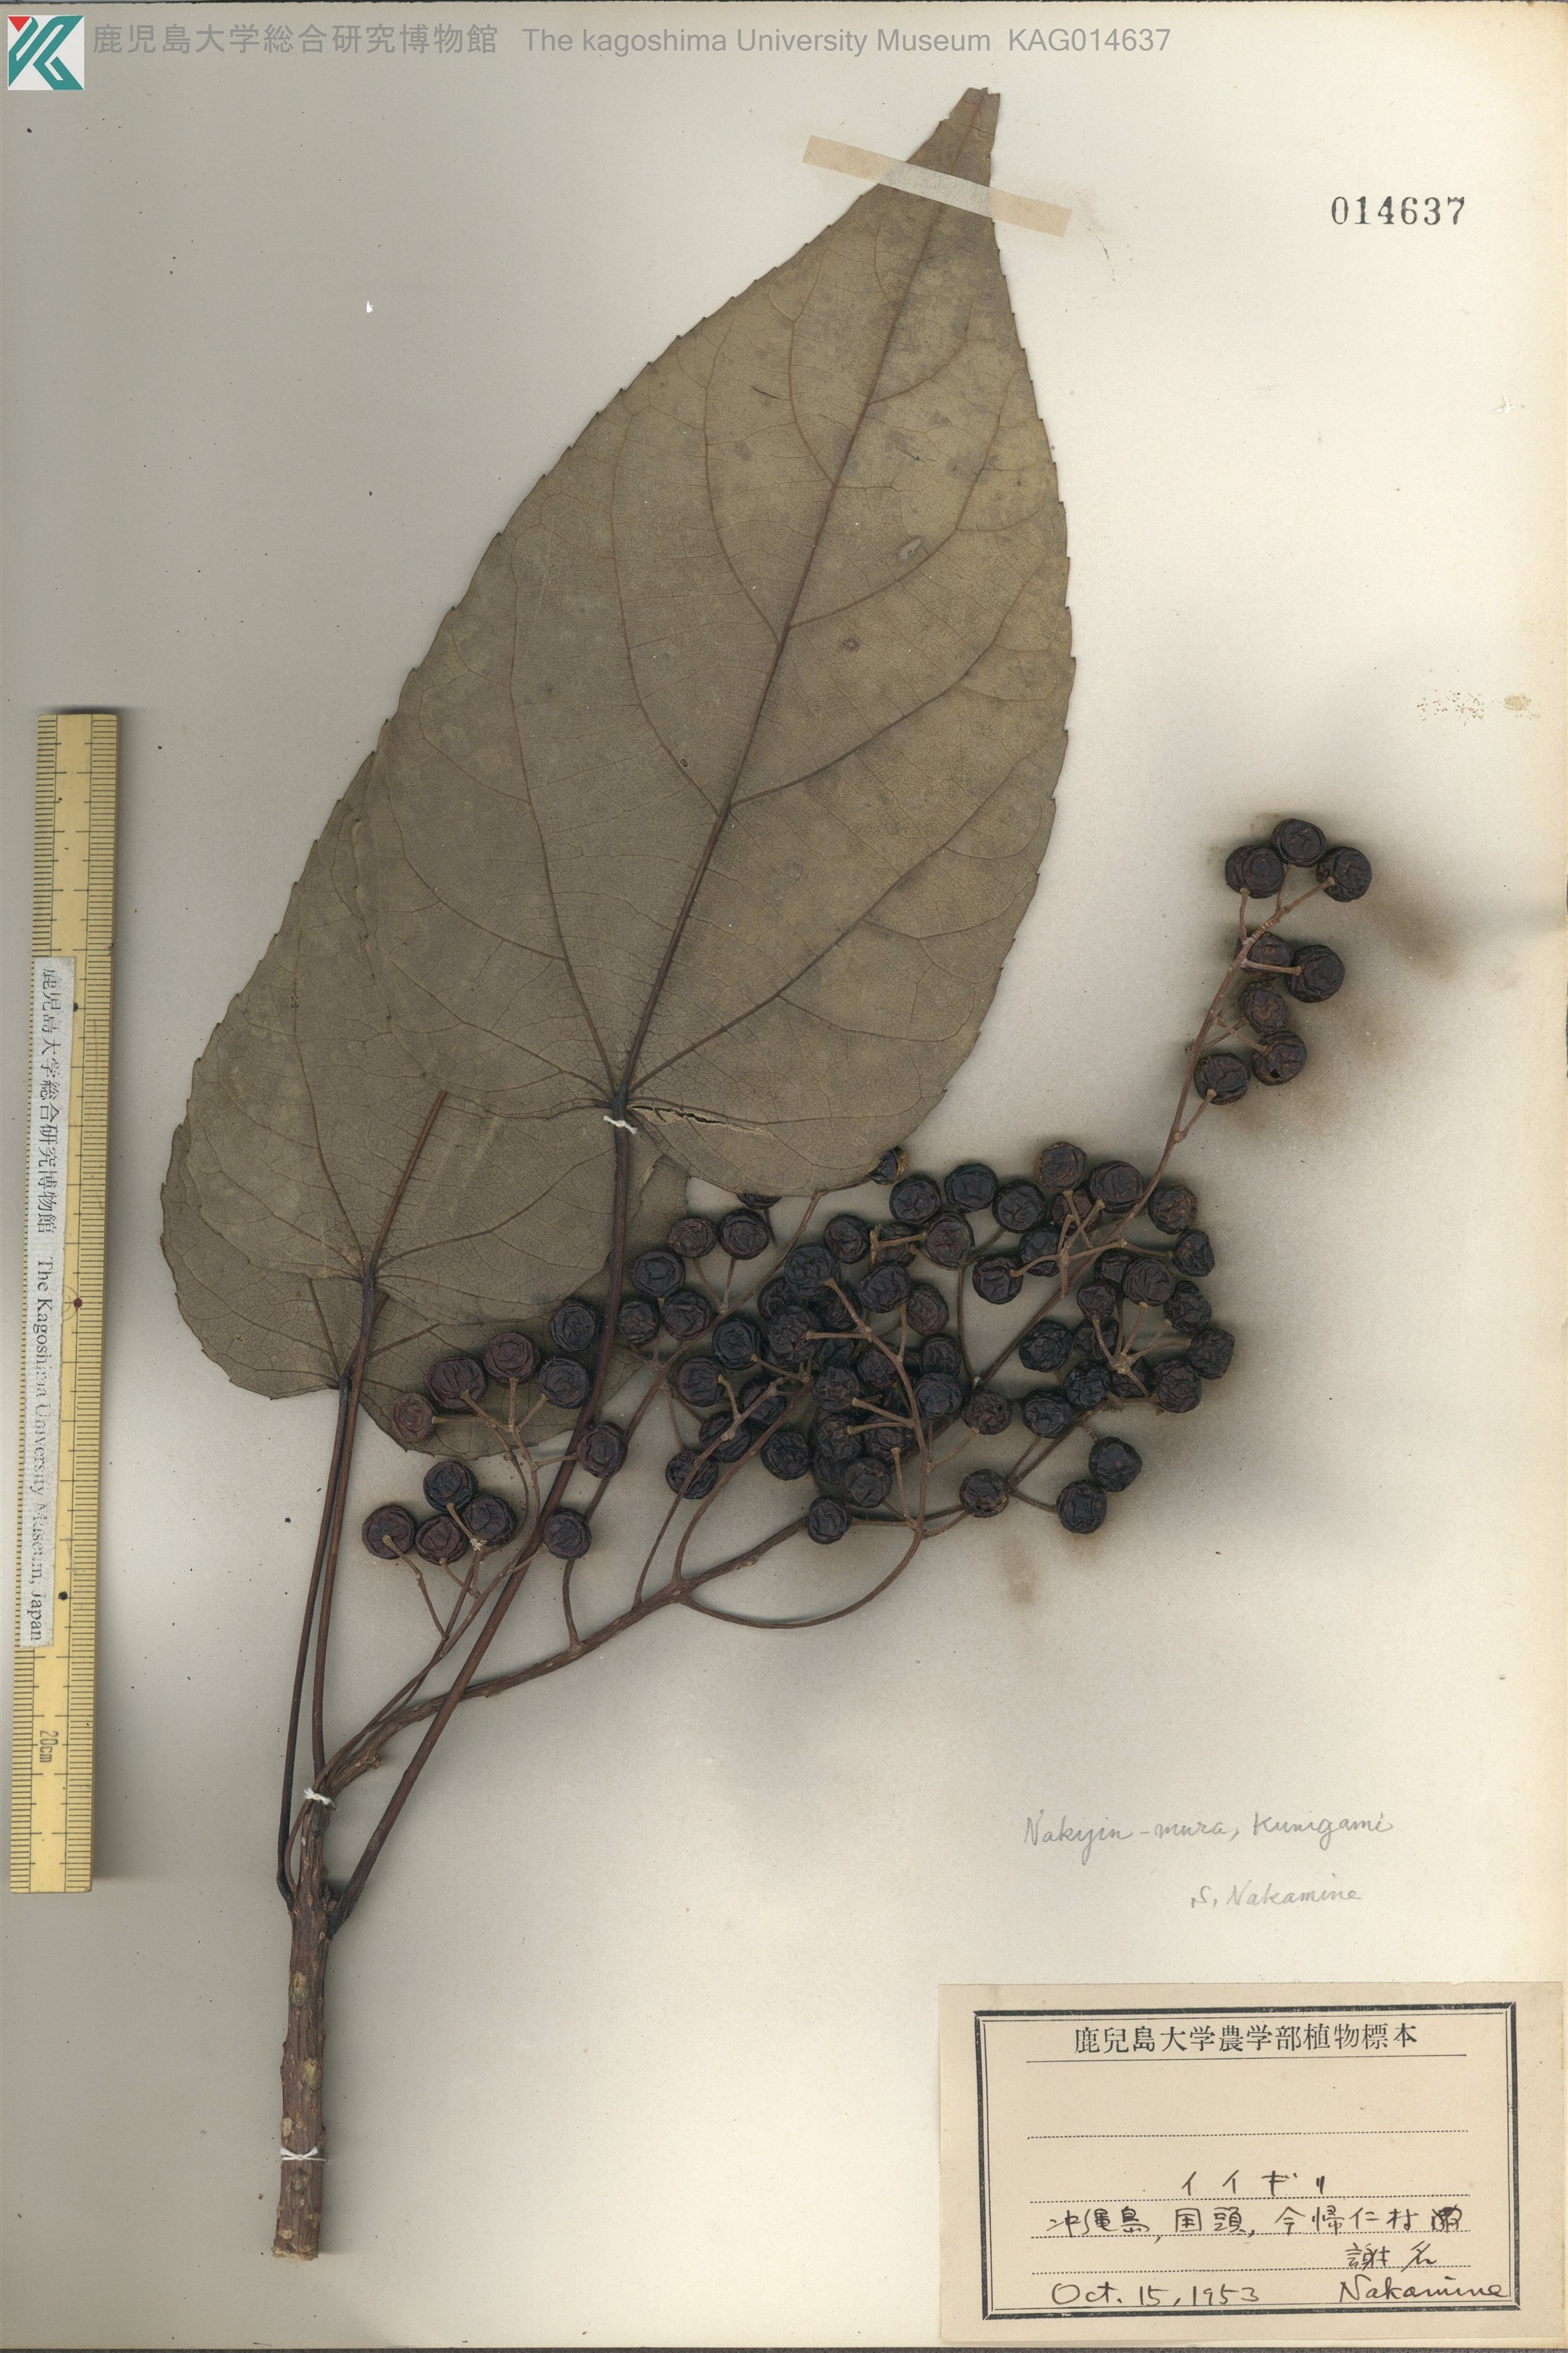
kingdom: Plantae
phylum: Tracheophyta
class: Magnoliopsida
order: Malpighiales
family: Salicaceae
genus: Idesia
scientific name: Idesia polycarpa
